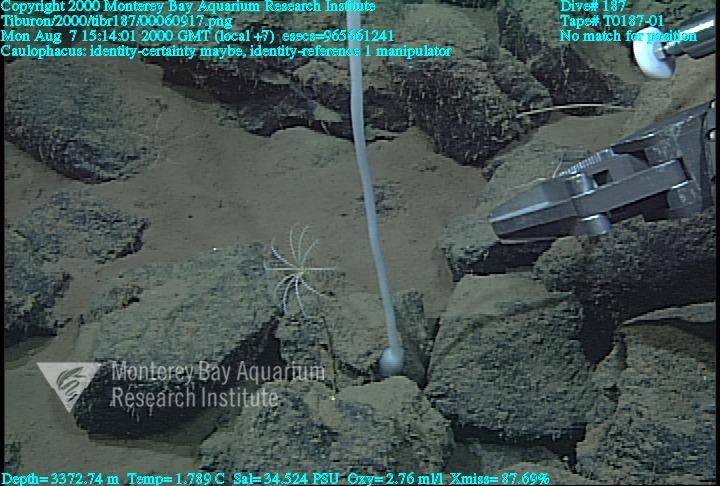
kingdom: Animalia
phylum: Porifera
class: Hexactinellida
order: Lyssacinosida
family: Rossellidae
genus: Caulophacus
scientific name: Caulophacus
